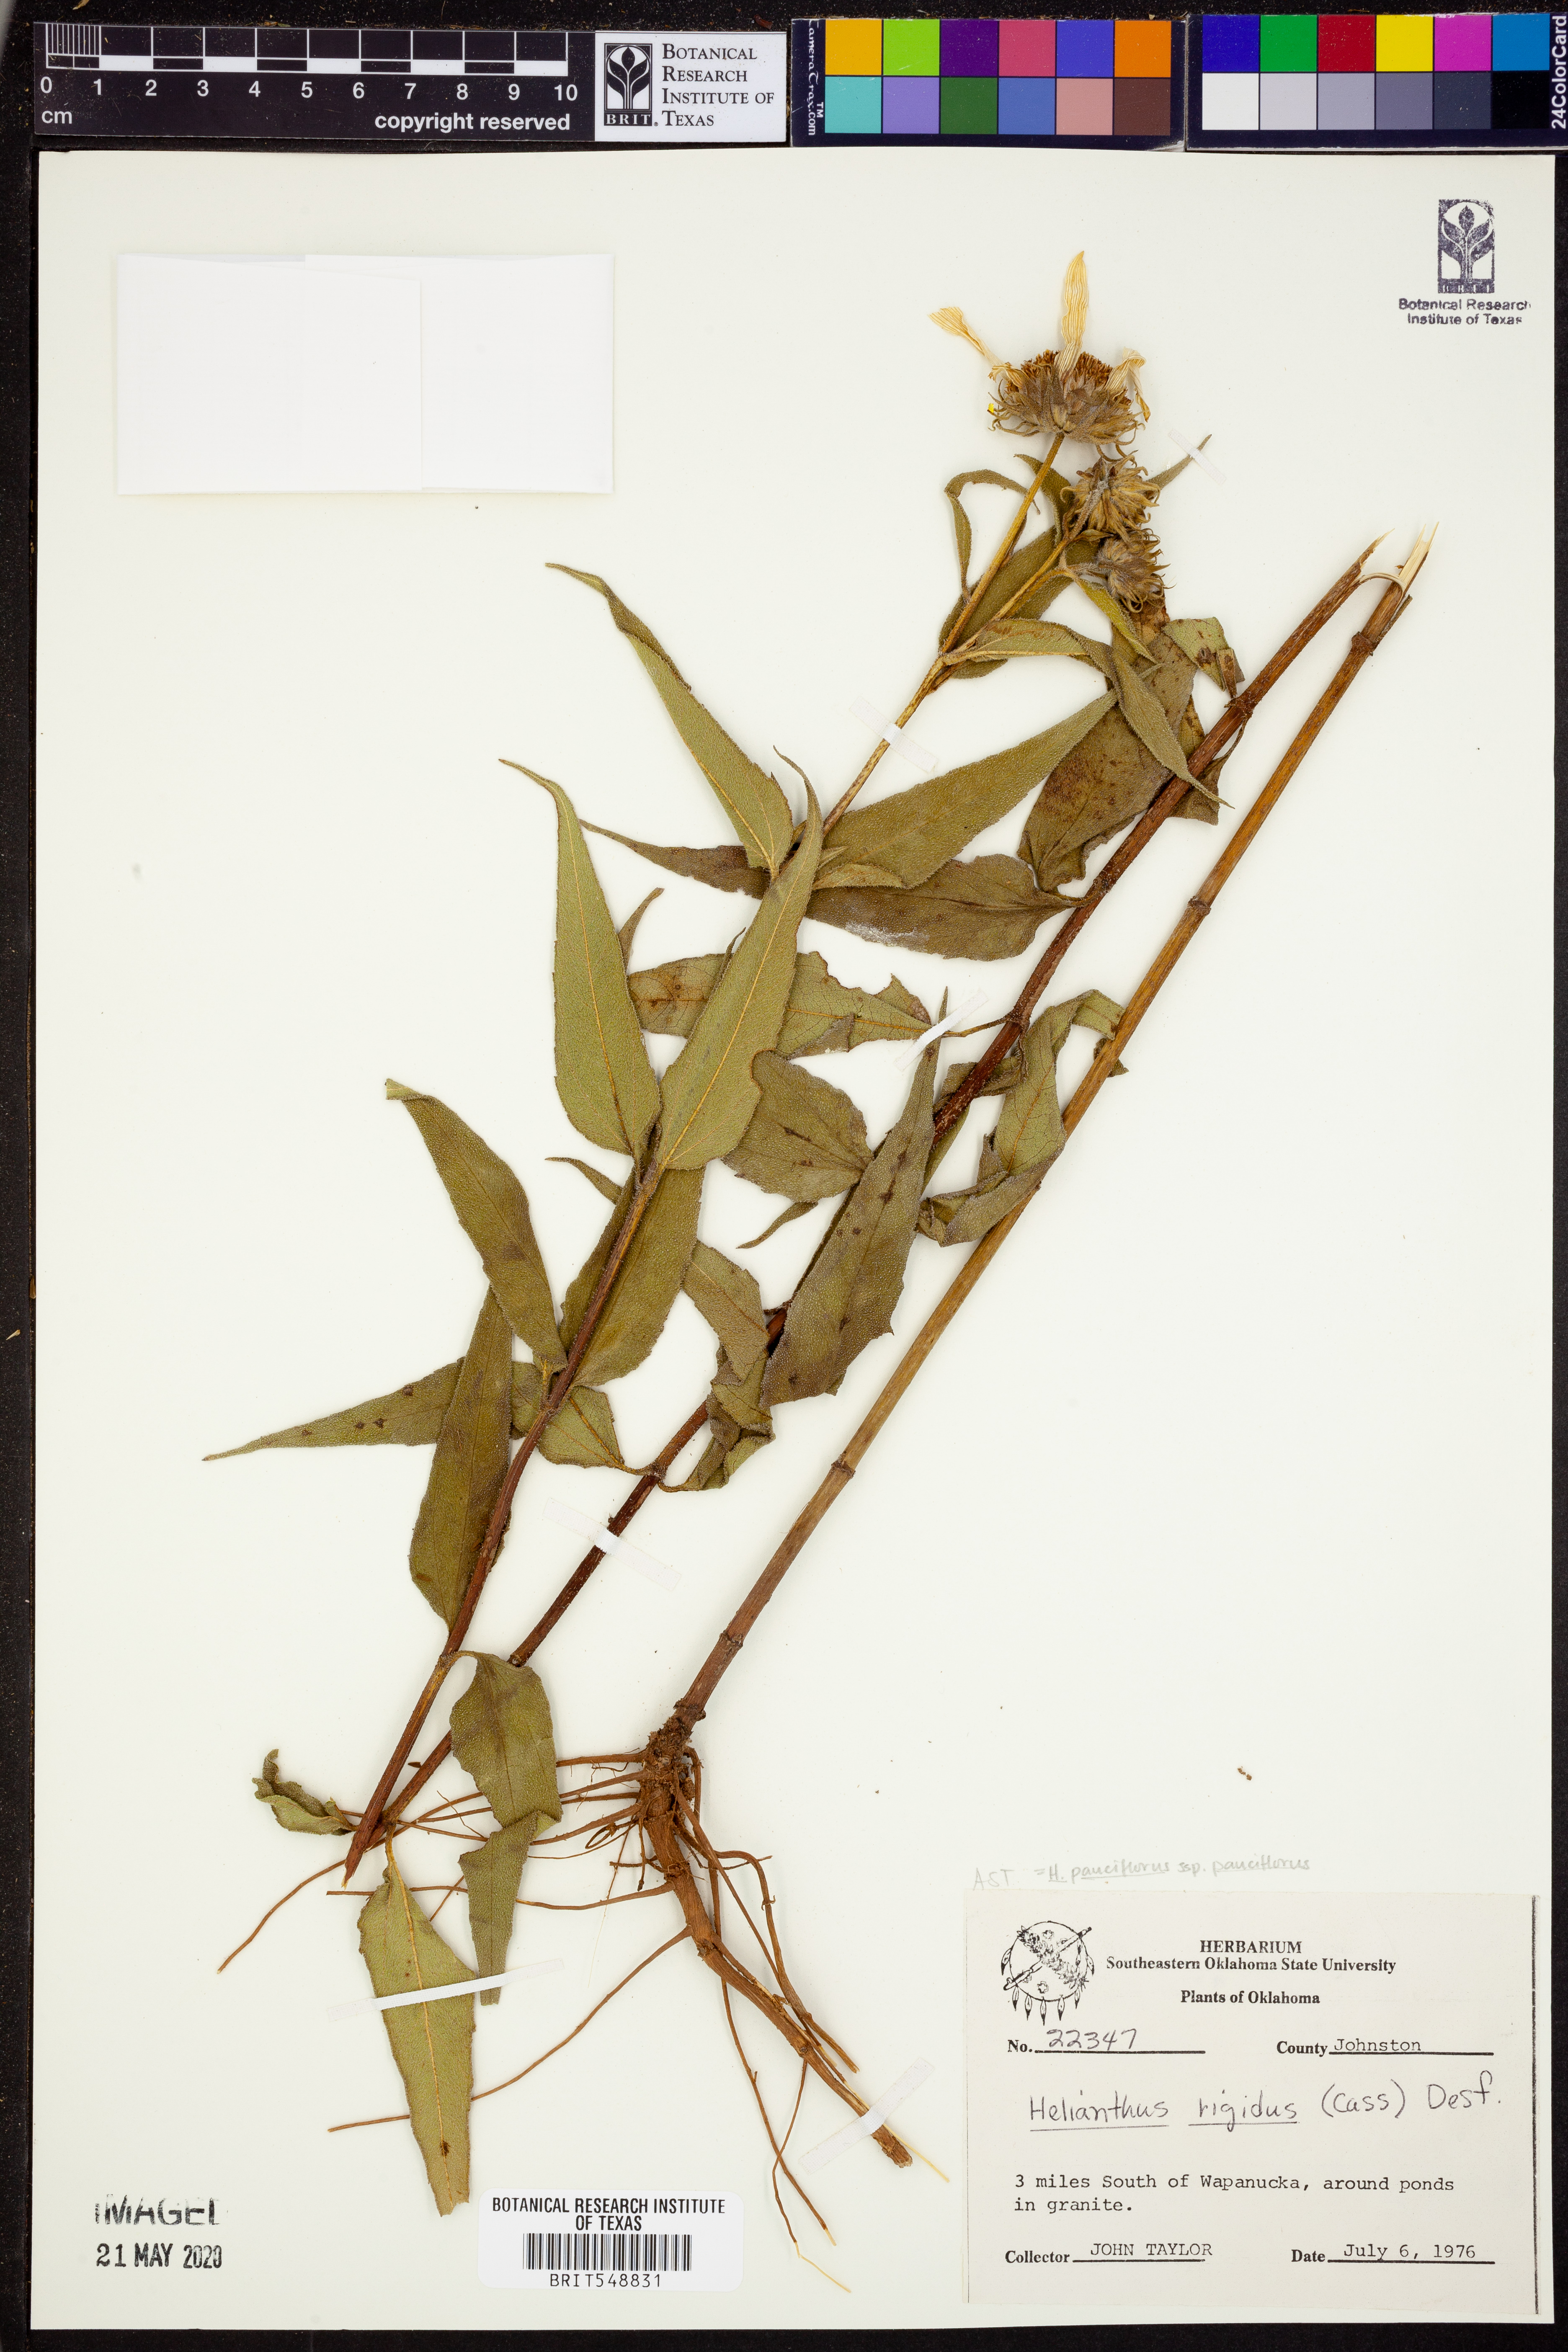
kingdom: Plantae
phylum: Tracheophyta
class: Magnoliopsida
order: Asterales
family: Asteraceae
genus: Helianthus
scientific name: Helianthus pauciflorus
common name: Stiff sunflower
